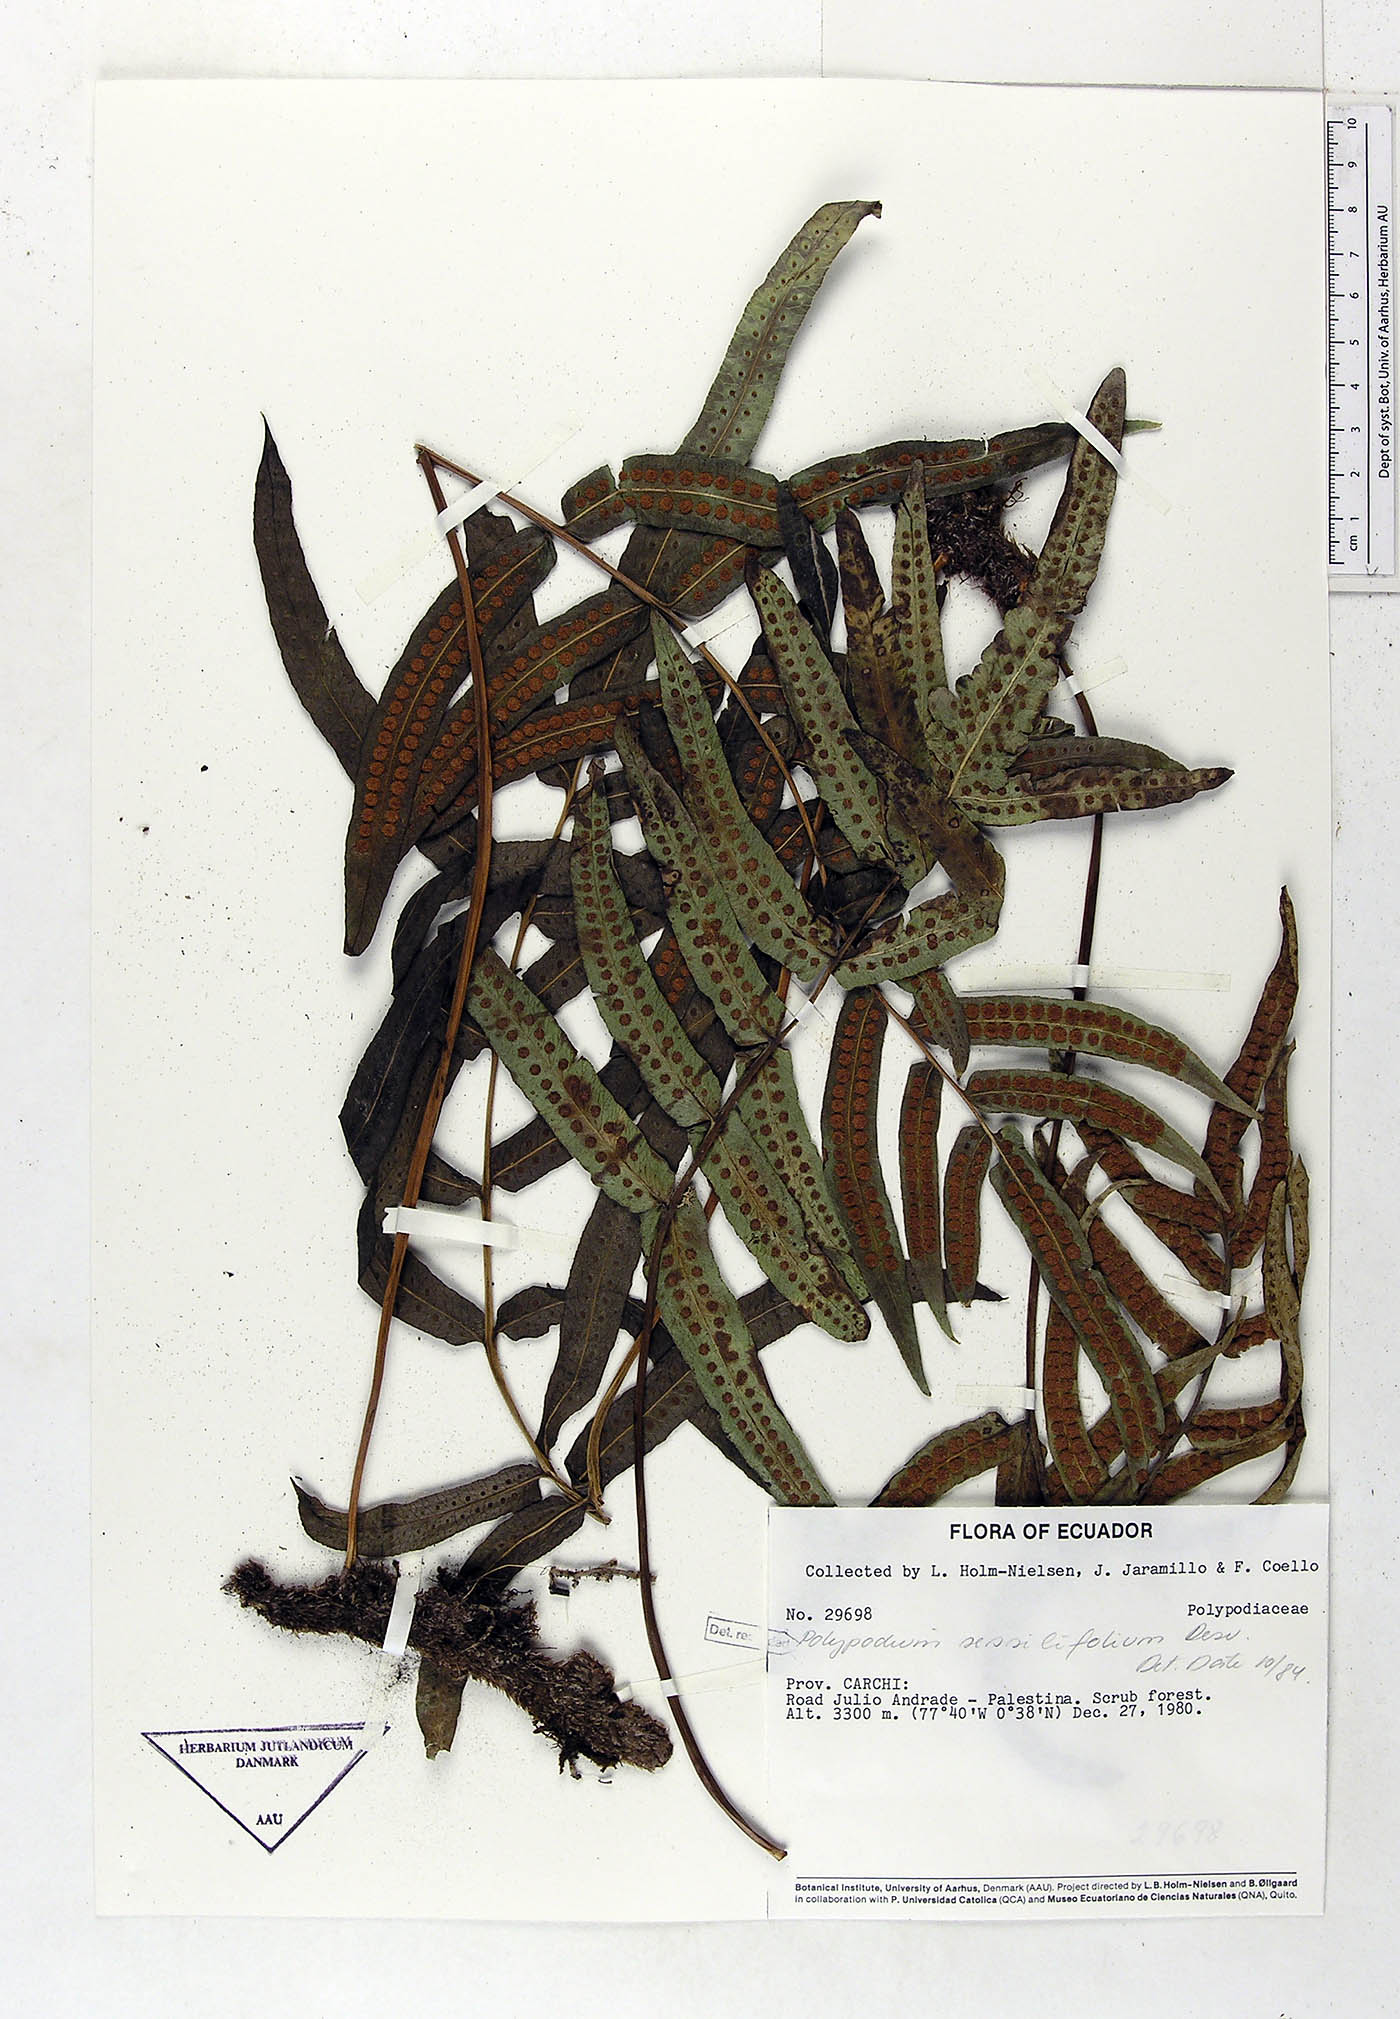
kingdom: Plantae
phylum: Tracheophyta
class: Polypodiopsida
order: Polypodiales
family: Polypodiaceae
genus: Serpocaulon
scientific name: Serpocaulon sessilifolium
